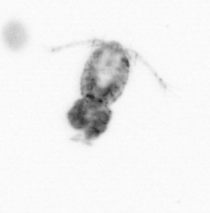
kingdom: Animalia
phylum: Arthropoda
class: Copepoda
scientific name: Copepoda
